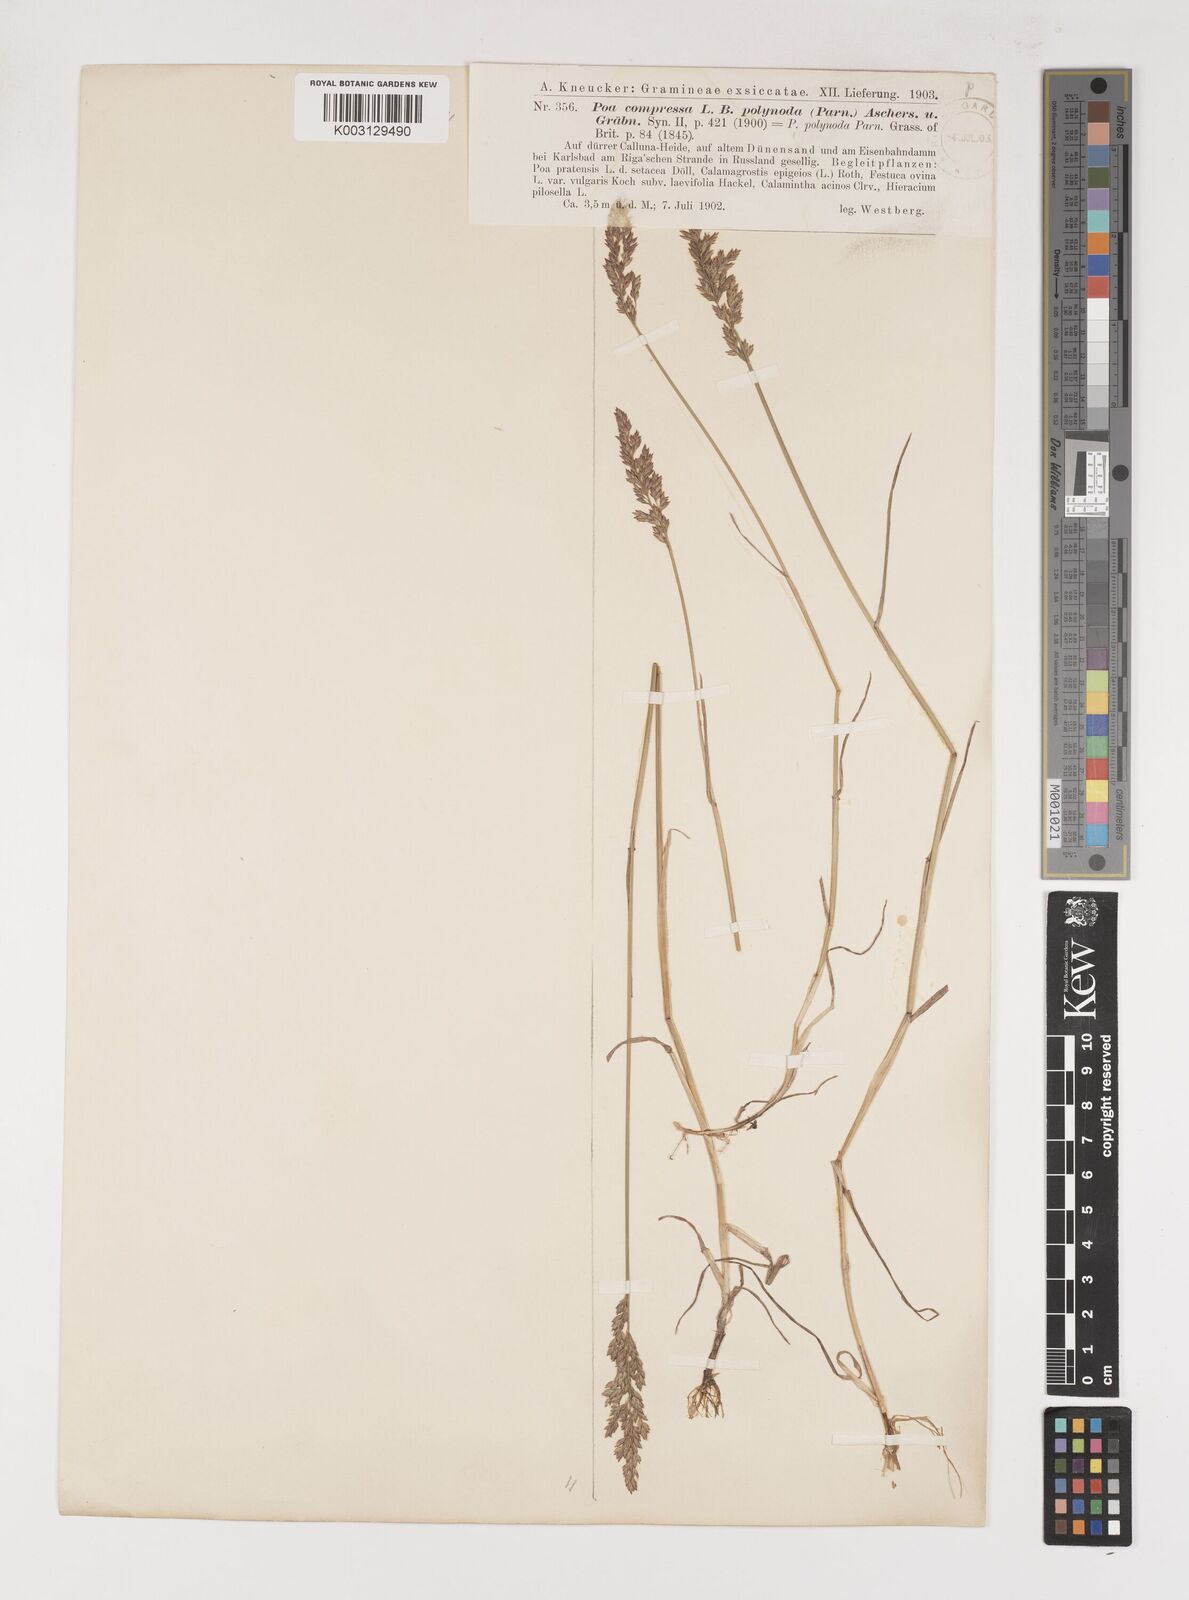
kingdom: Plantae
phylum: Tracheophyta
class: Liliopsida
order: Poales
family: Poaceae
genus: Poa
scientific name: Poa compressa
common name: Canada bluegrass
